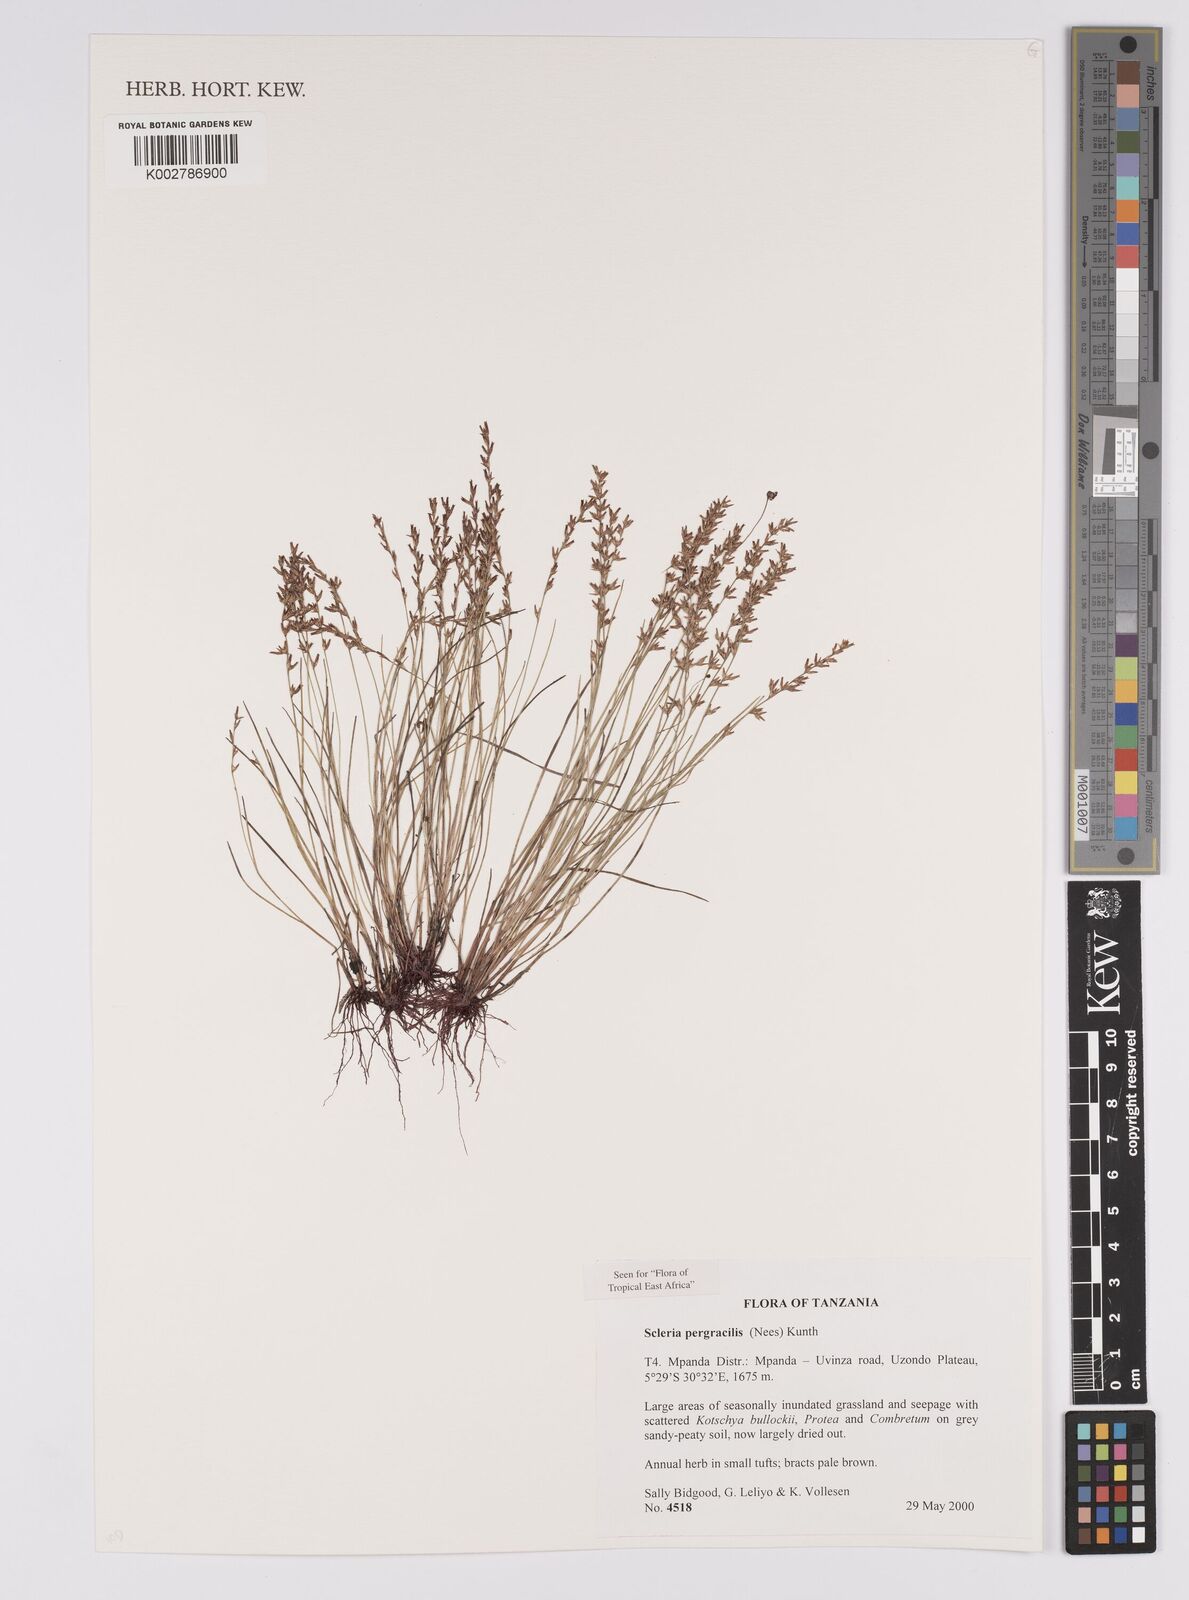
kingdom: Plantae
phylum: Tracheophyta
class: Liliopsida
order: Poales
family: Cyperaceae
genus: Scleria
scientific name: Scleria pergracilis
